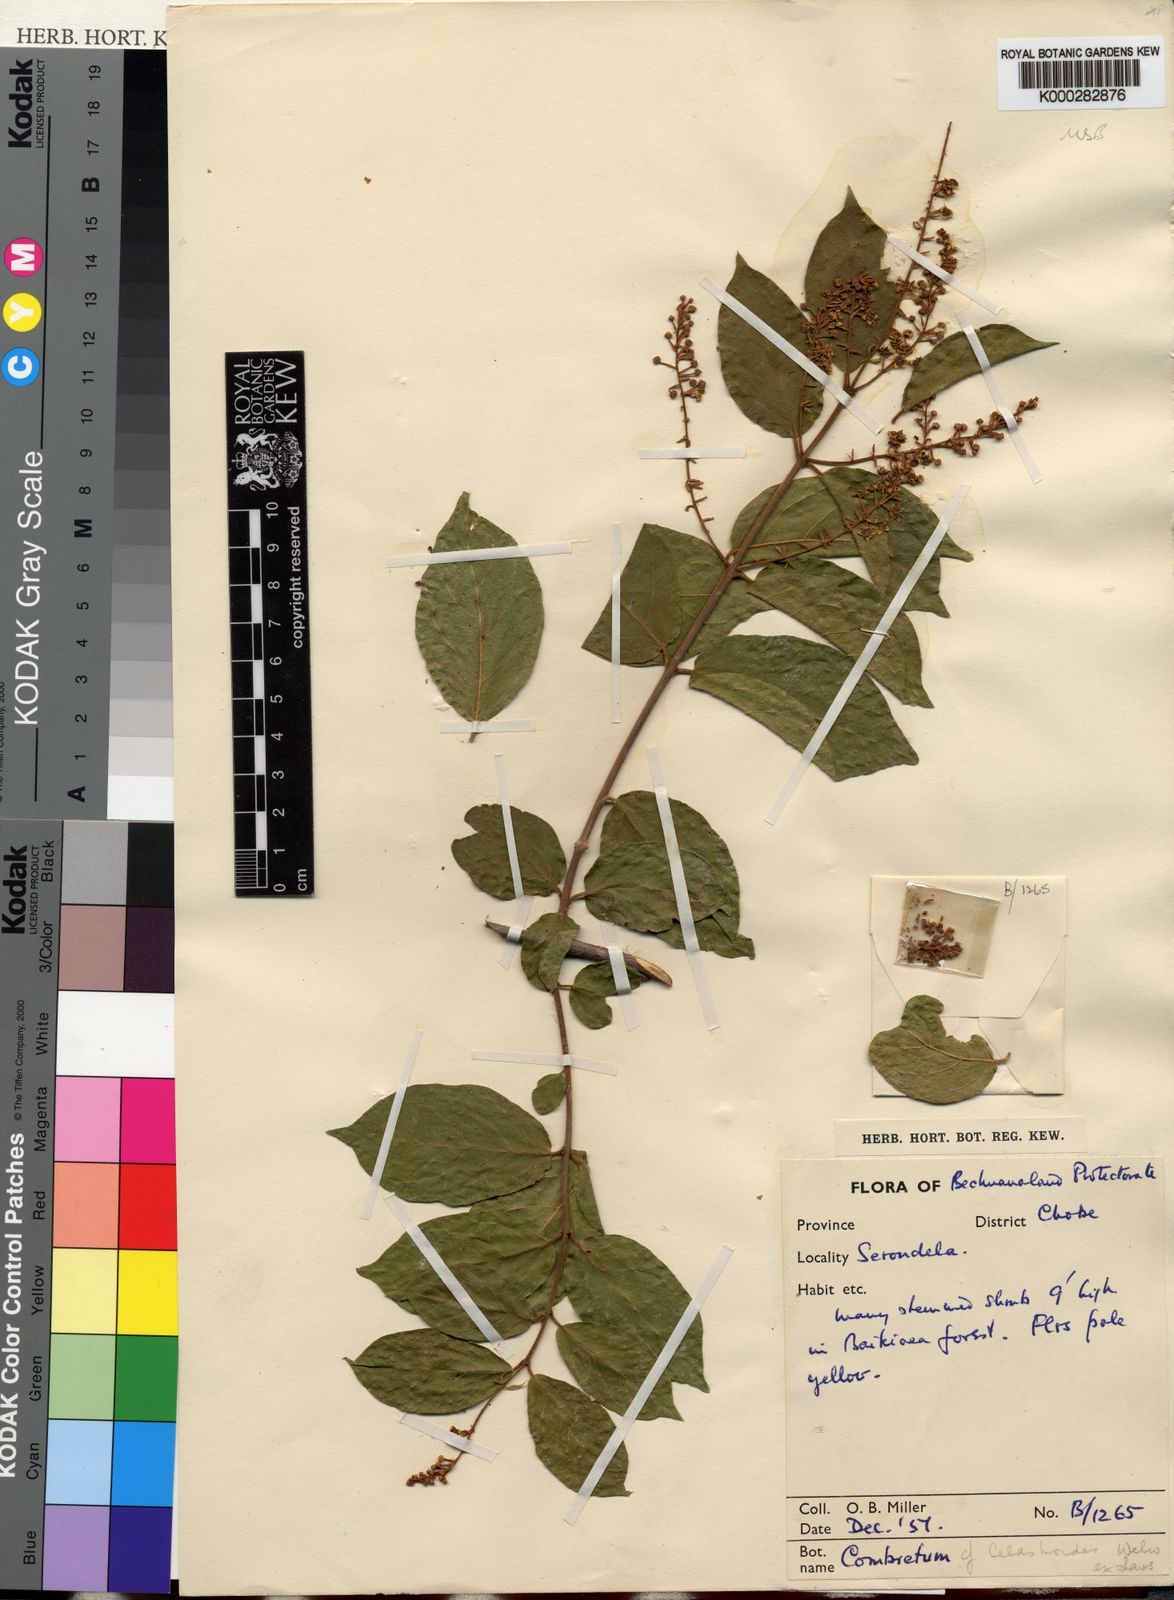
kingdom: Plantae
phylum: Tracheophyta
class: Magnoliopsida
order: Myrtales
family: Combretaceae
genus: Combretum
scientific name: Combretum celastroides
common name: Jesse-bush combretum
